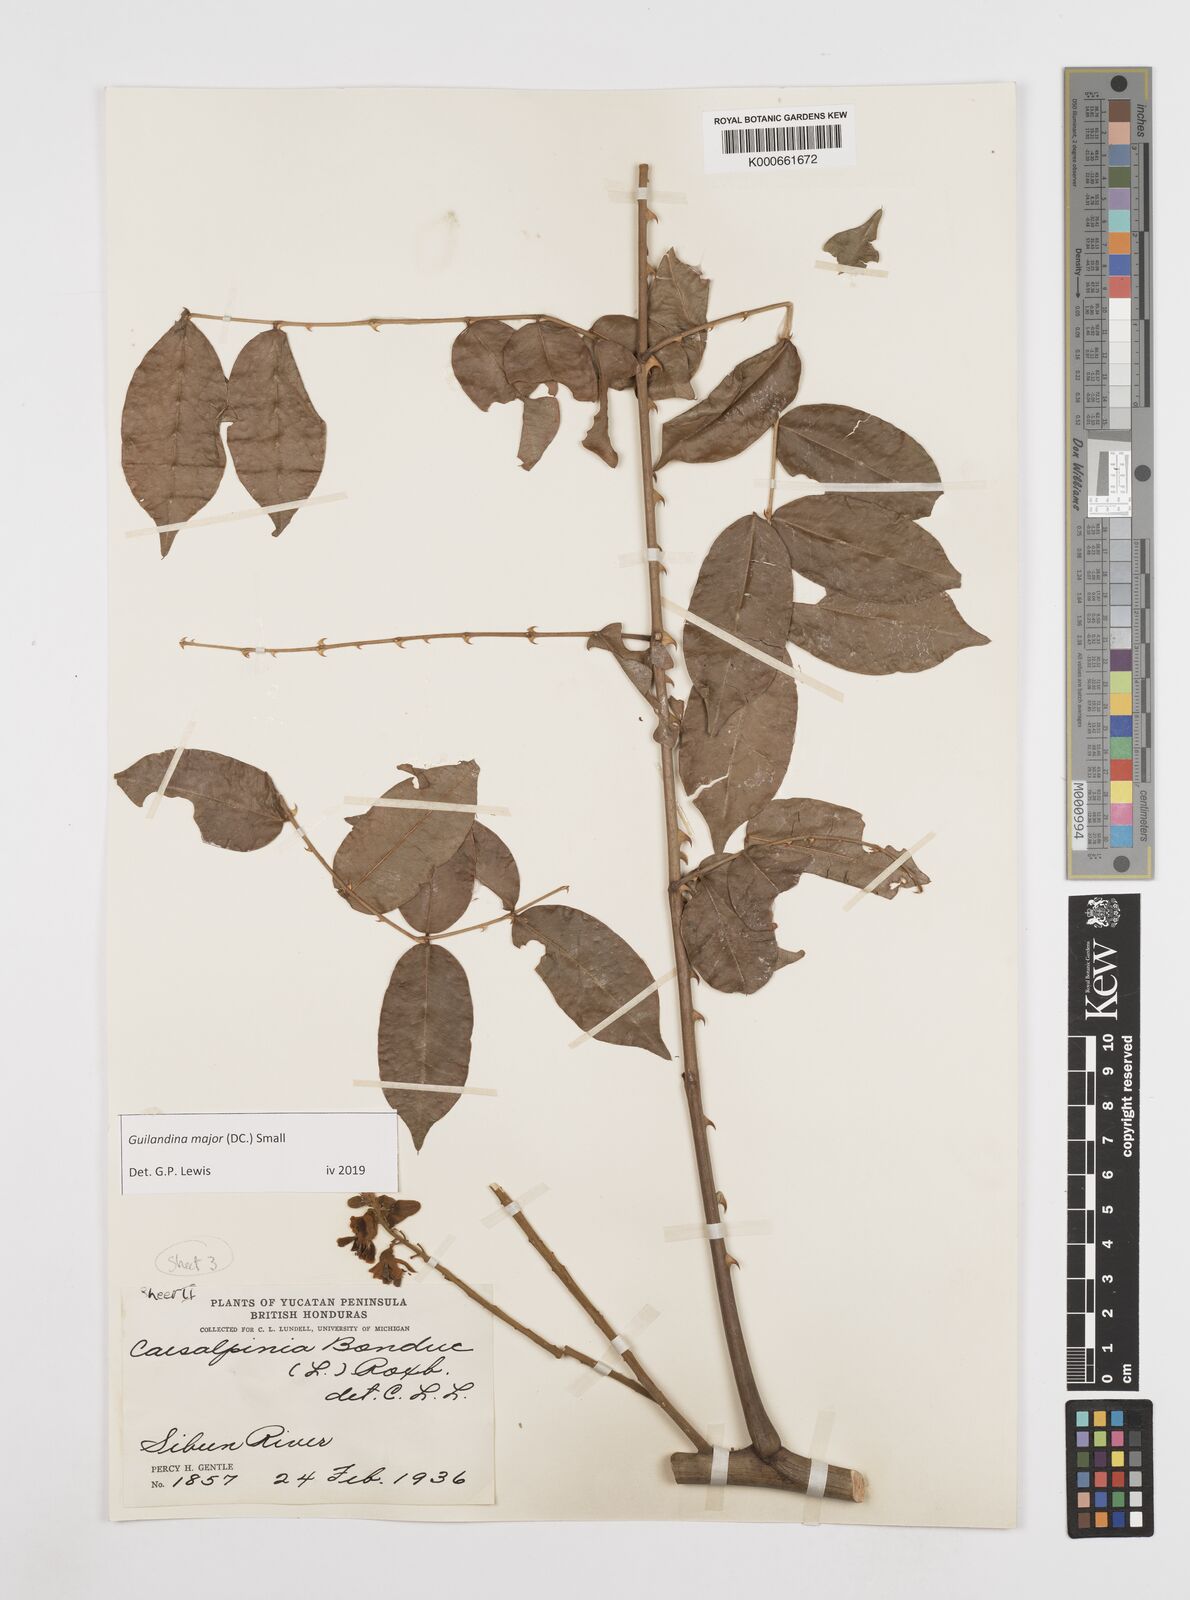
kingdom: Plantae
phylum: Tracheophyta
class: Magnoliopsida
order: Fabales
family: Fabaceae
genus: Guilandina
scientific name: Guilandina major
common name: Hawai'i pearls
